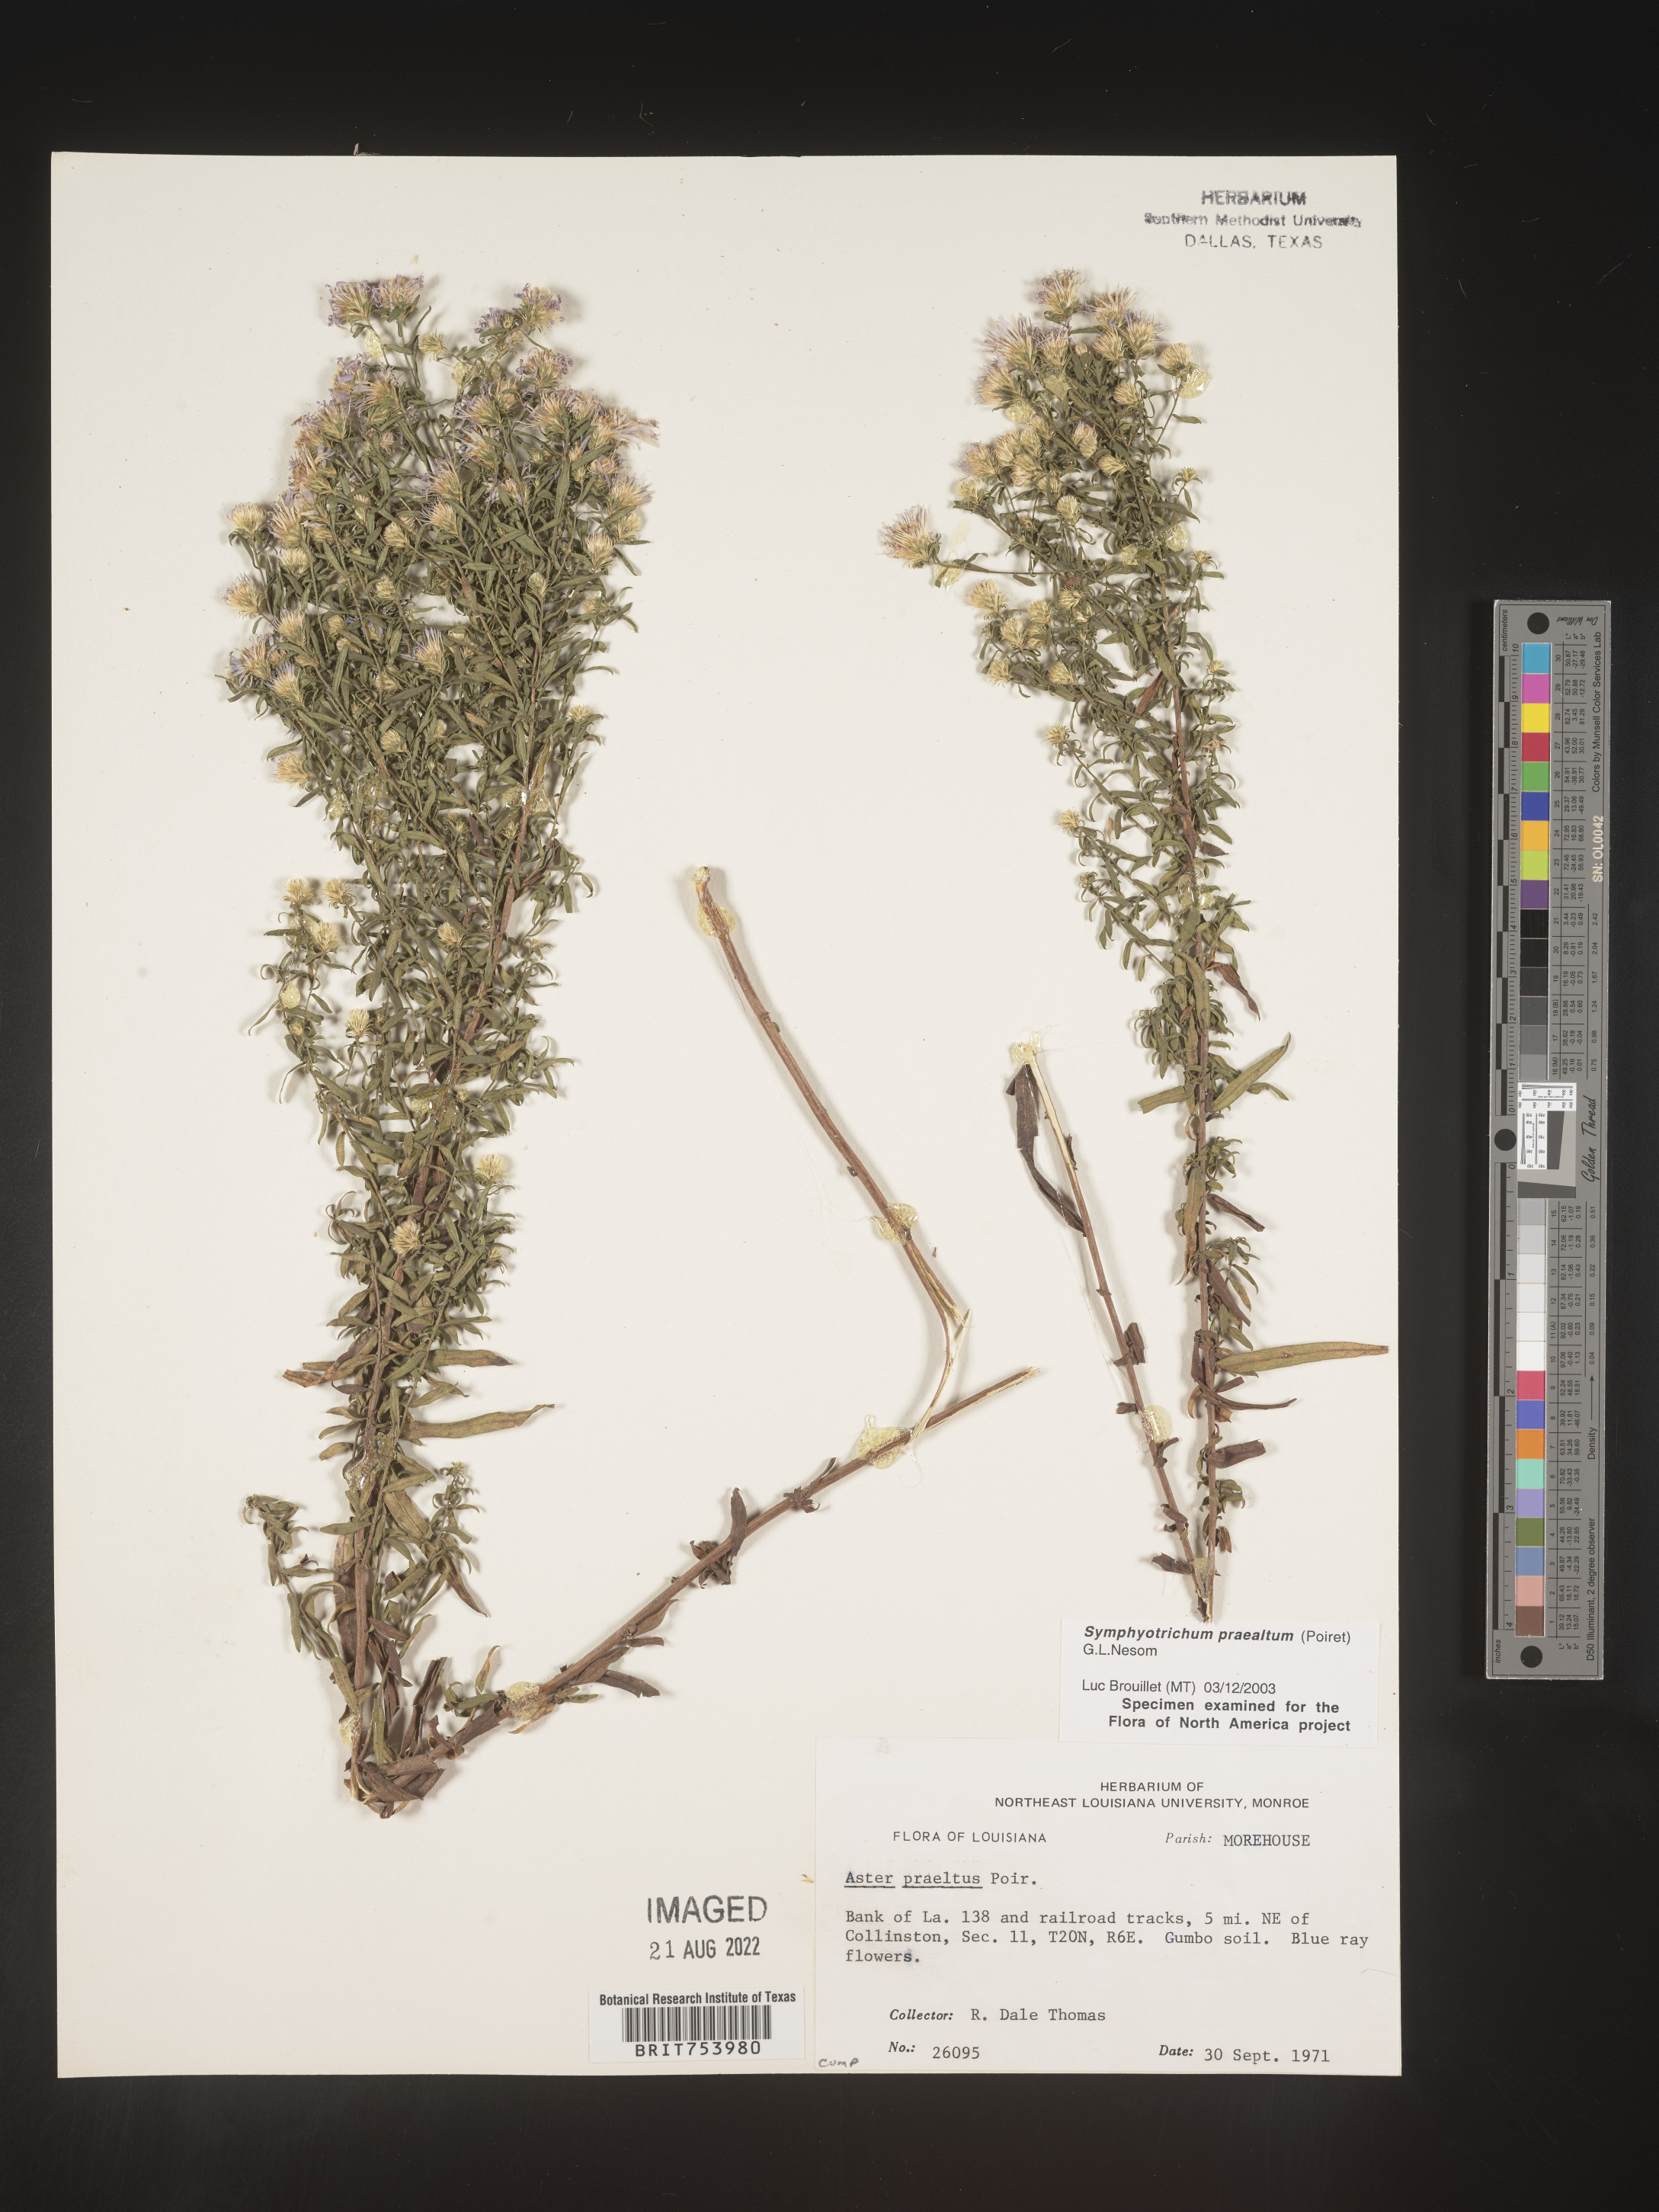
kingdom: Plantae
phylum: Tracheophyta
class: Magnoliopsida
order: Asterales
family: Asteraceae
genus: Symphyotrichum
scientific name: Symphyotrichum praealtum
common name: Willow aster
